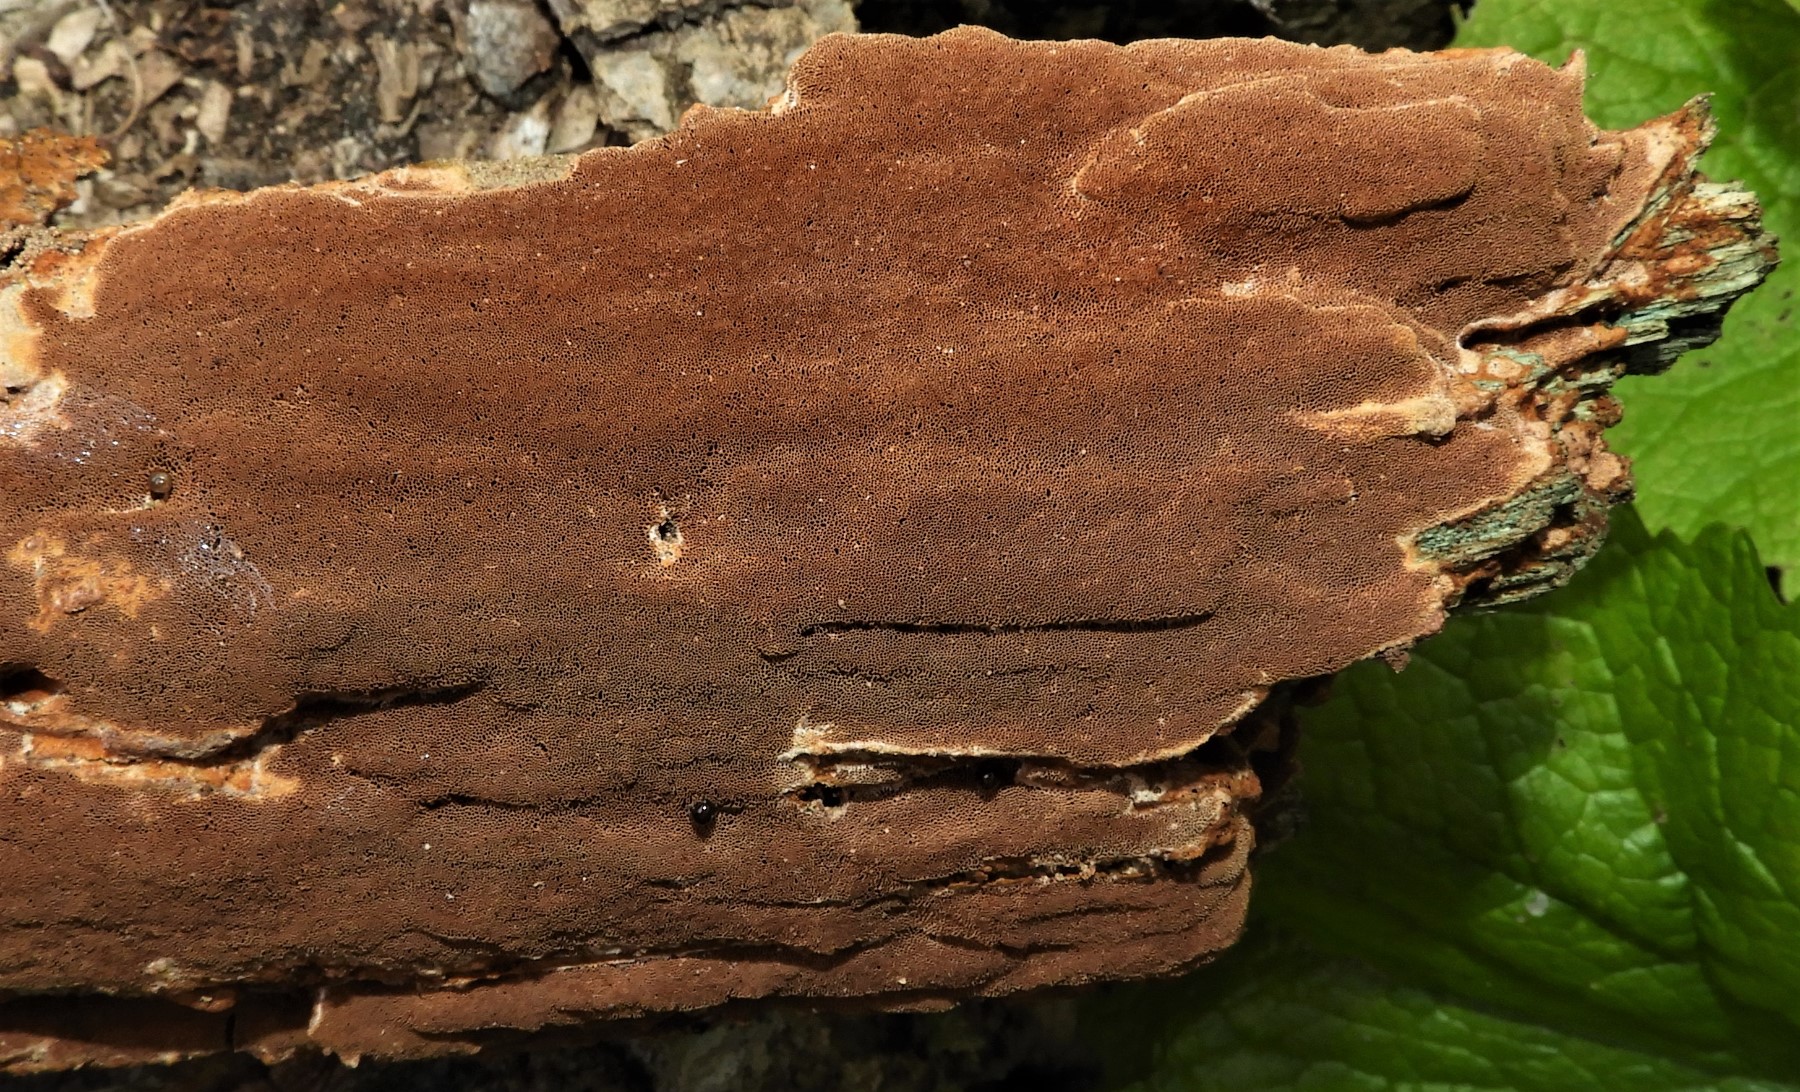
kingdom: Fungi
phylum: Basidiomycota
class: Agaricomycetes
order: Hymenochaetales
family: Hymenochaetaceae
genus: Fuscoporia
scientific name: Fuscoporia ferrea
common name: skorpe-ildporesvamp
